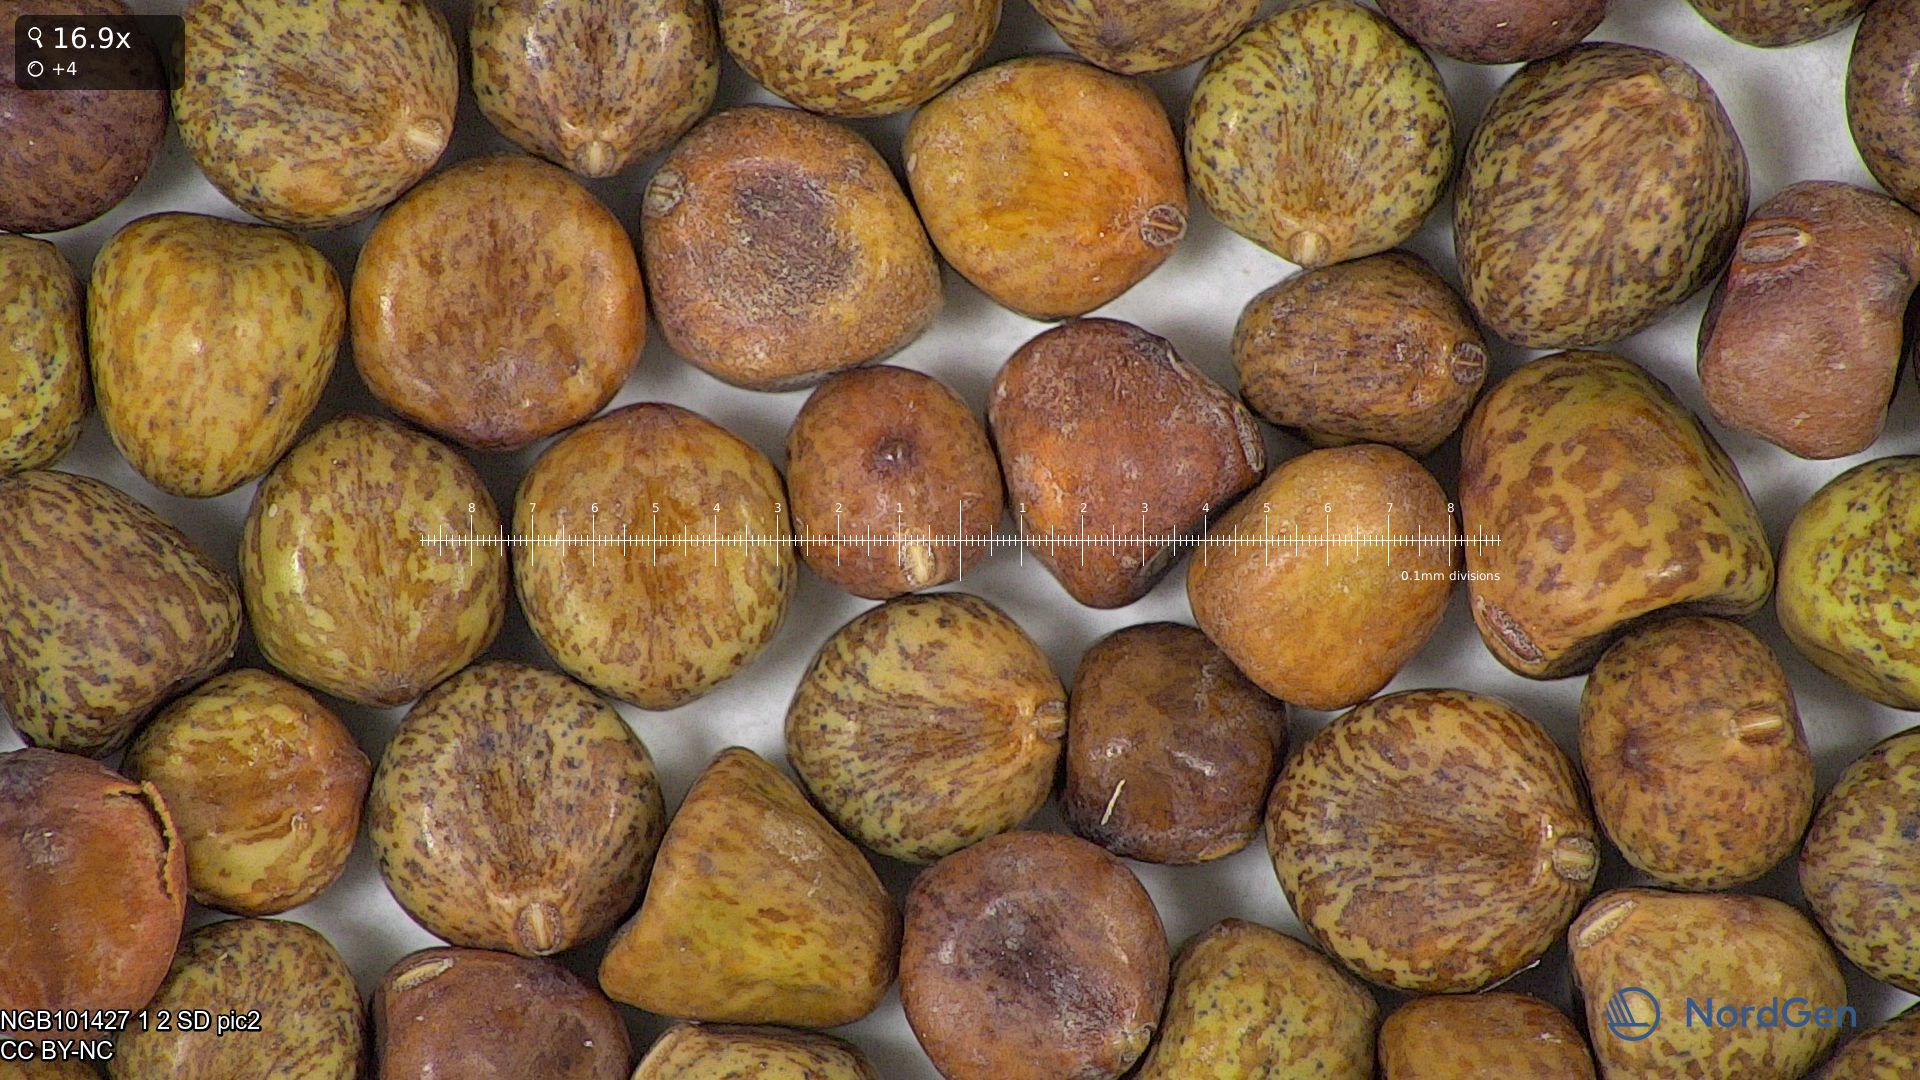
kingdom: Plantae
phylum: Tracheophyta
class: Magnoliopsida
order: Fabales
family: Fabaceae
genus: Lathyrus
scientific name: Lathyrus oleraceus
